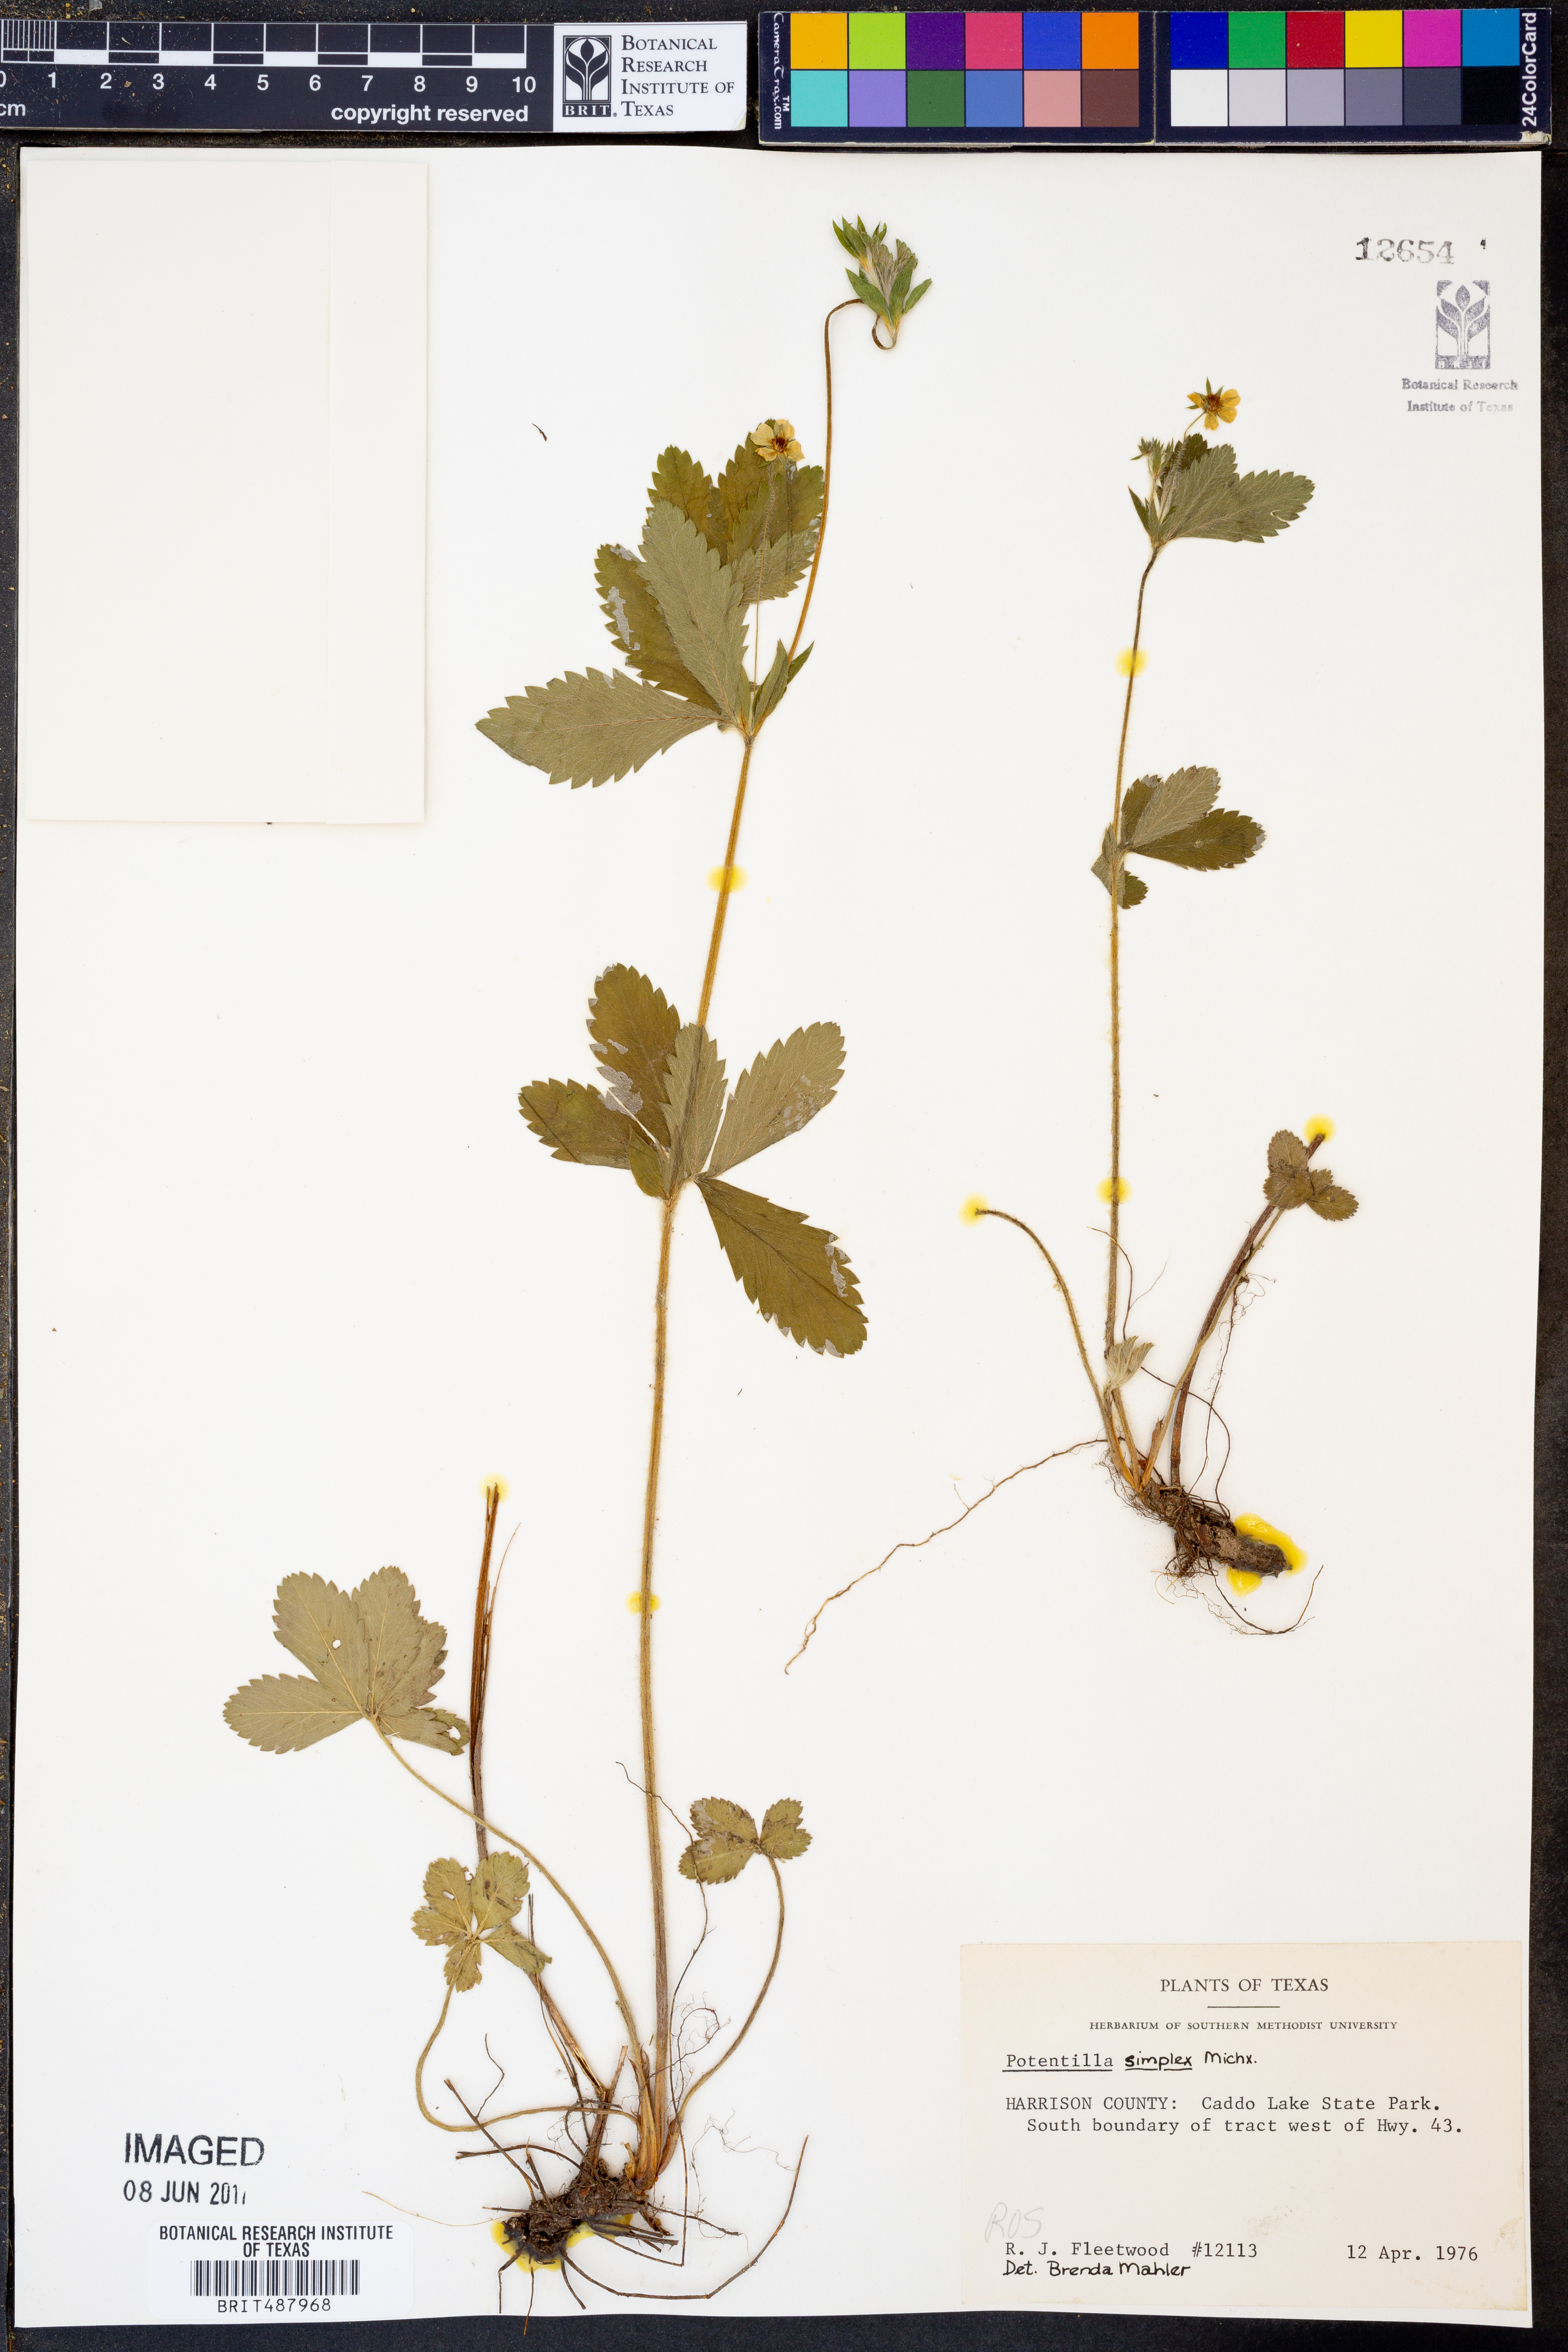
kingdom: Plantae
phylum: Tracheophyta
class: Magnoliopsida
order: Rosales
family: Rosaceae
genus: Potentilla
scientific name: Potentilla simplex
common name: Old field cinquefoil
